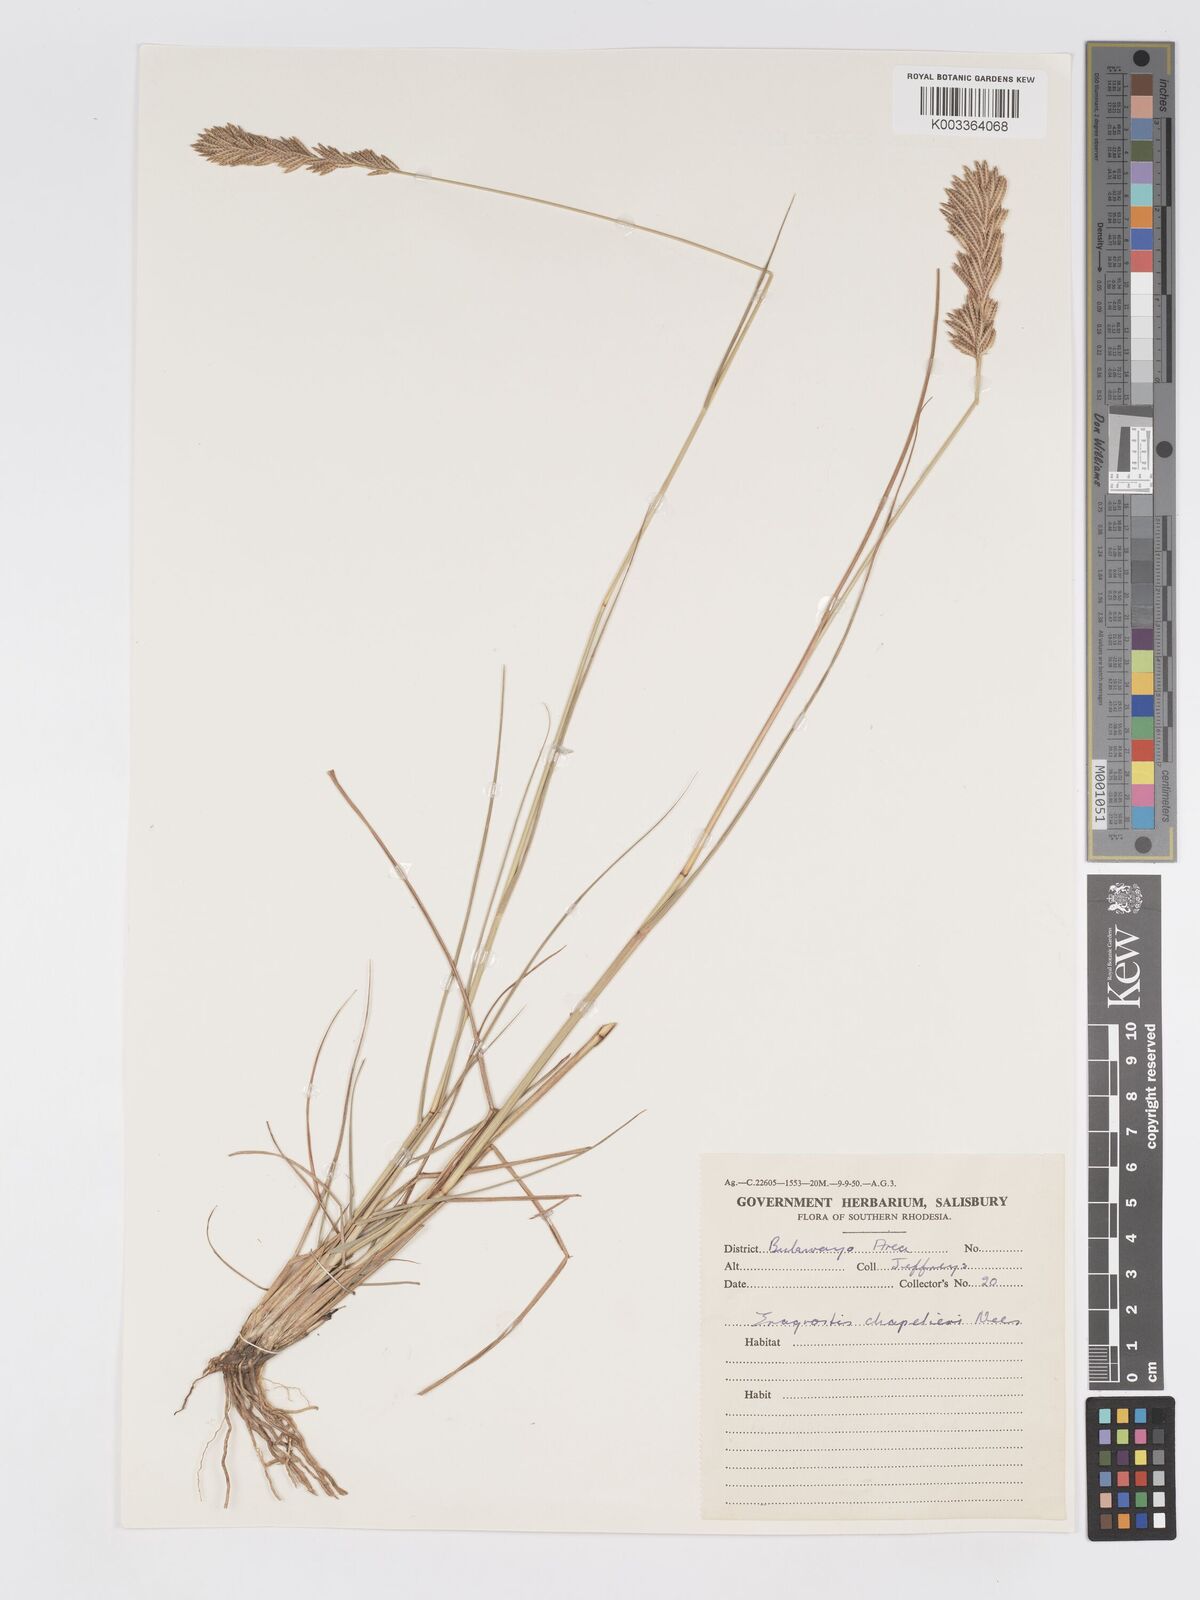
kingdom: Plantae
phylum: Tracheophyta
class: Liliopsida
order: Poales
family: Poaceae
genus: Eragrostis
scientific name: Eragrostis chapelieri
